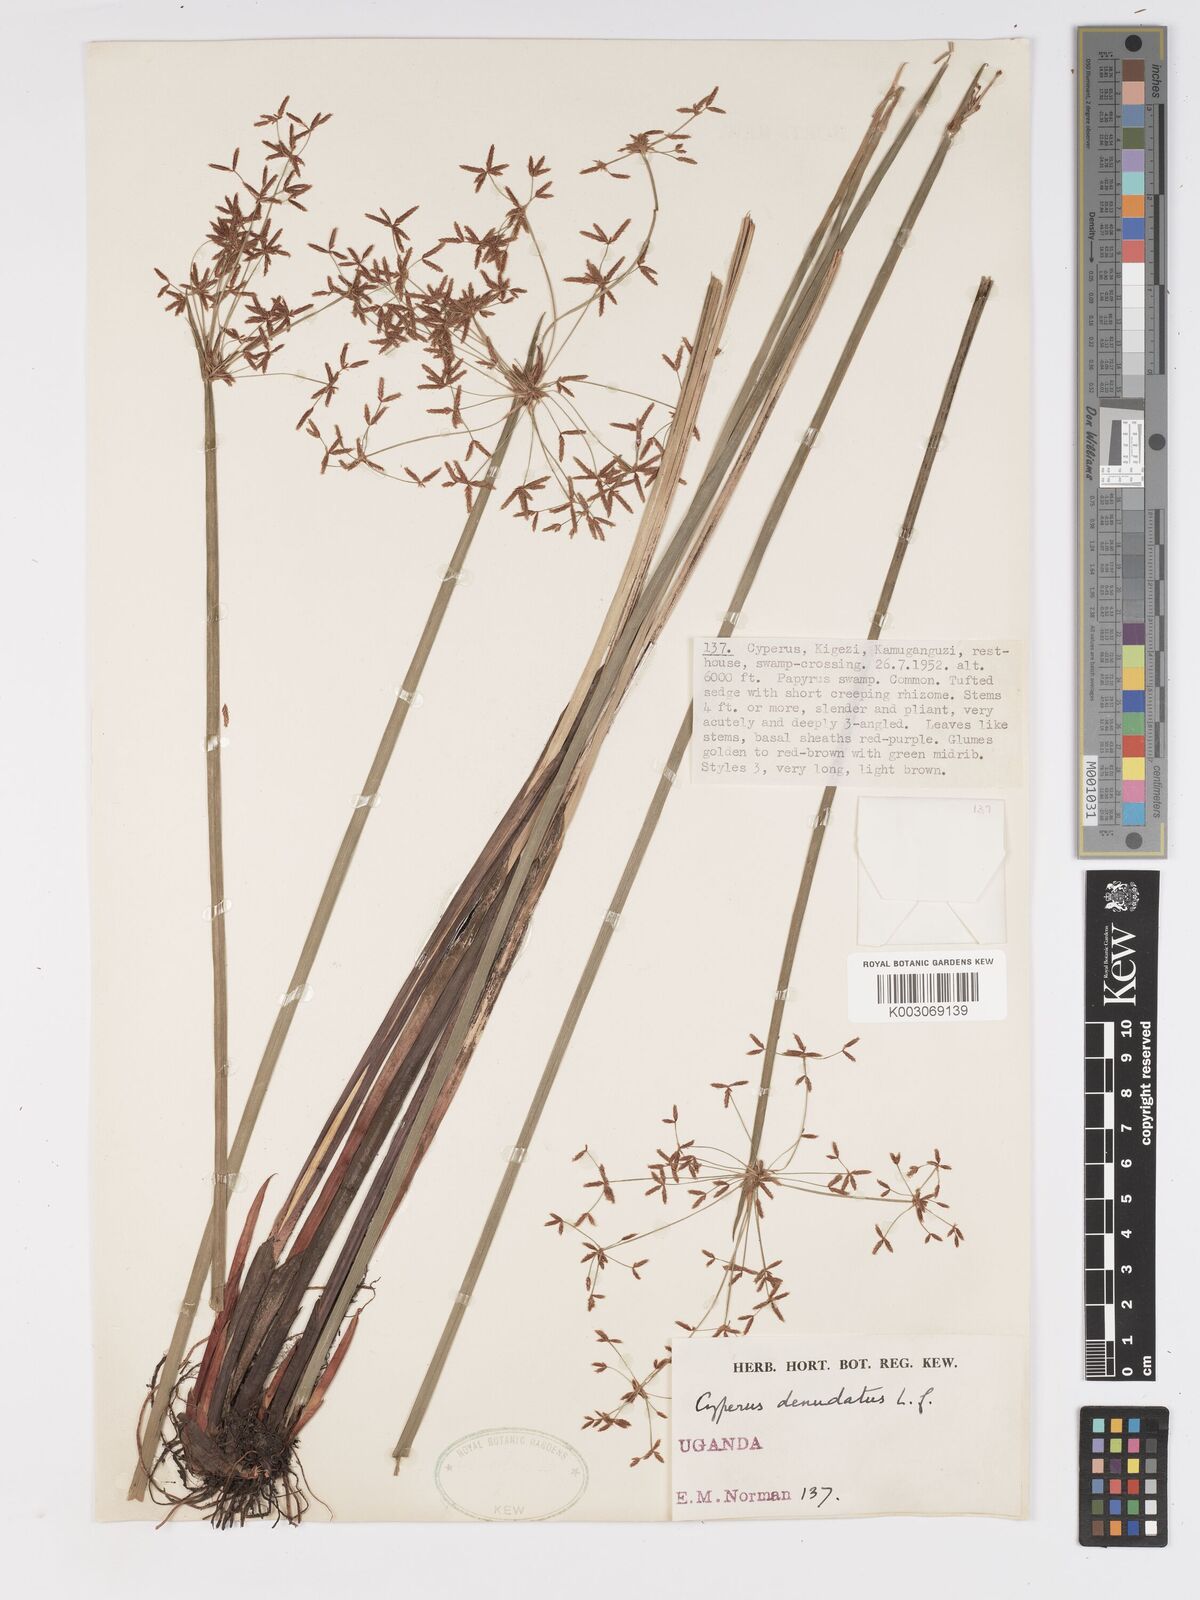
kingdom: Plantae
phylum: Tracheophyta
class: Liliopsida
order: Poales
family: Cyperaceae
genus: Cyperus
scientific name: Cyperus denudatus
